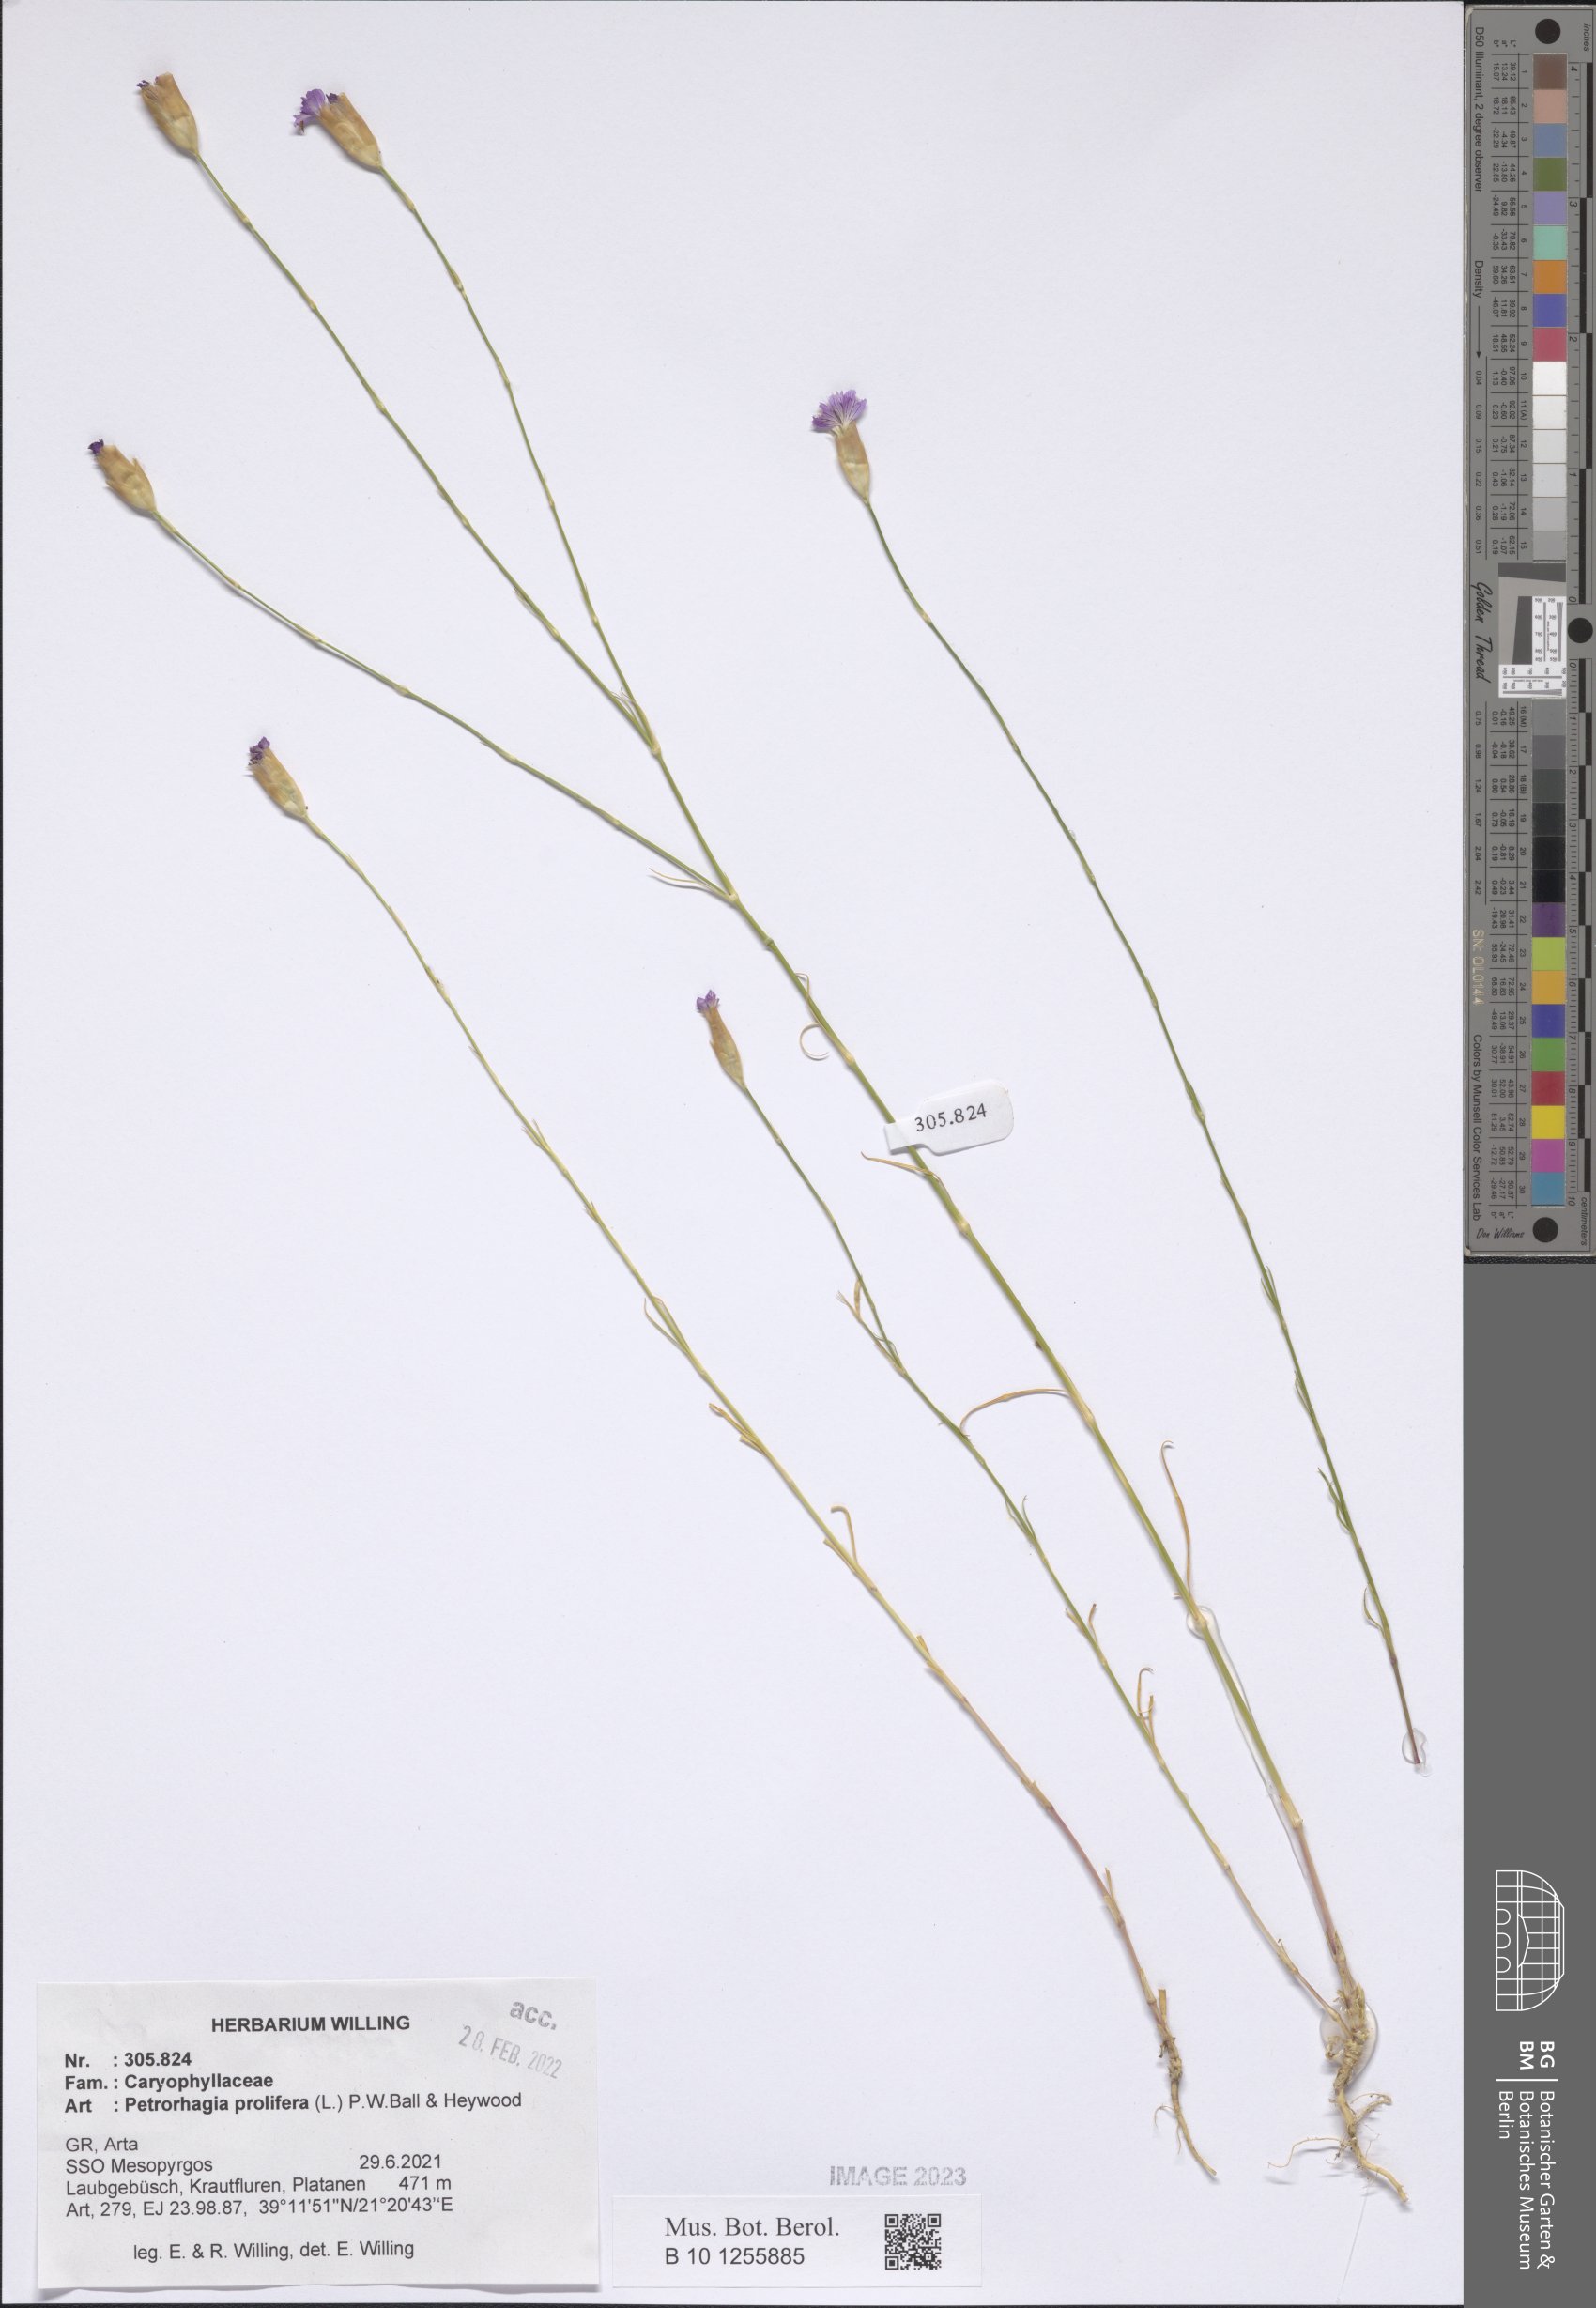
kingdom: Plantae
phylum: Tracheophyta
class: Magnoliopsida
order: Caryophyllales
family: Caryophyllaceae
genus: Petrorhagia
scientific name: Petrorhagia prolifera
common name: Proliferous pink
